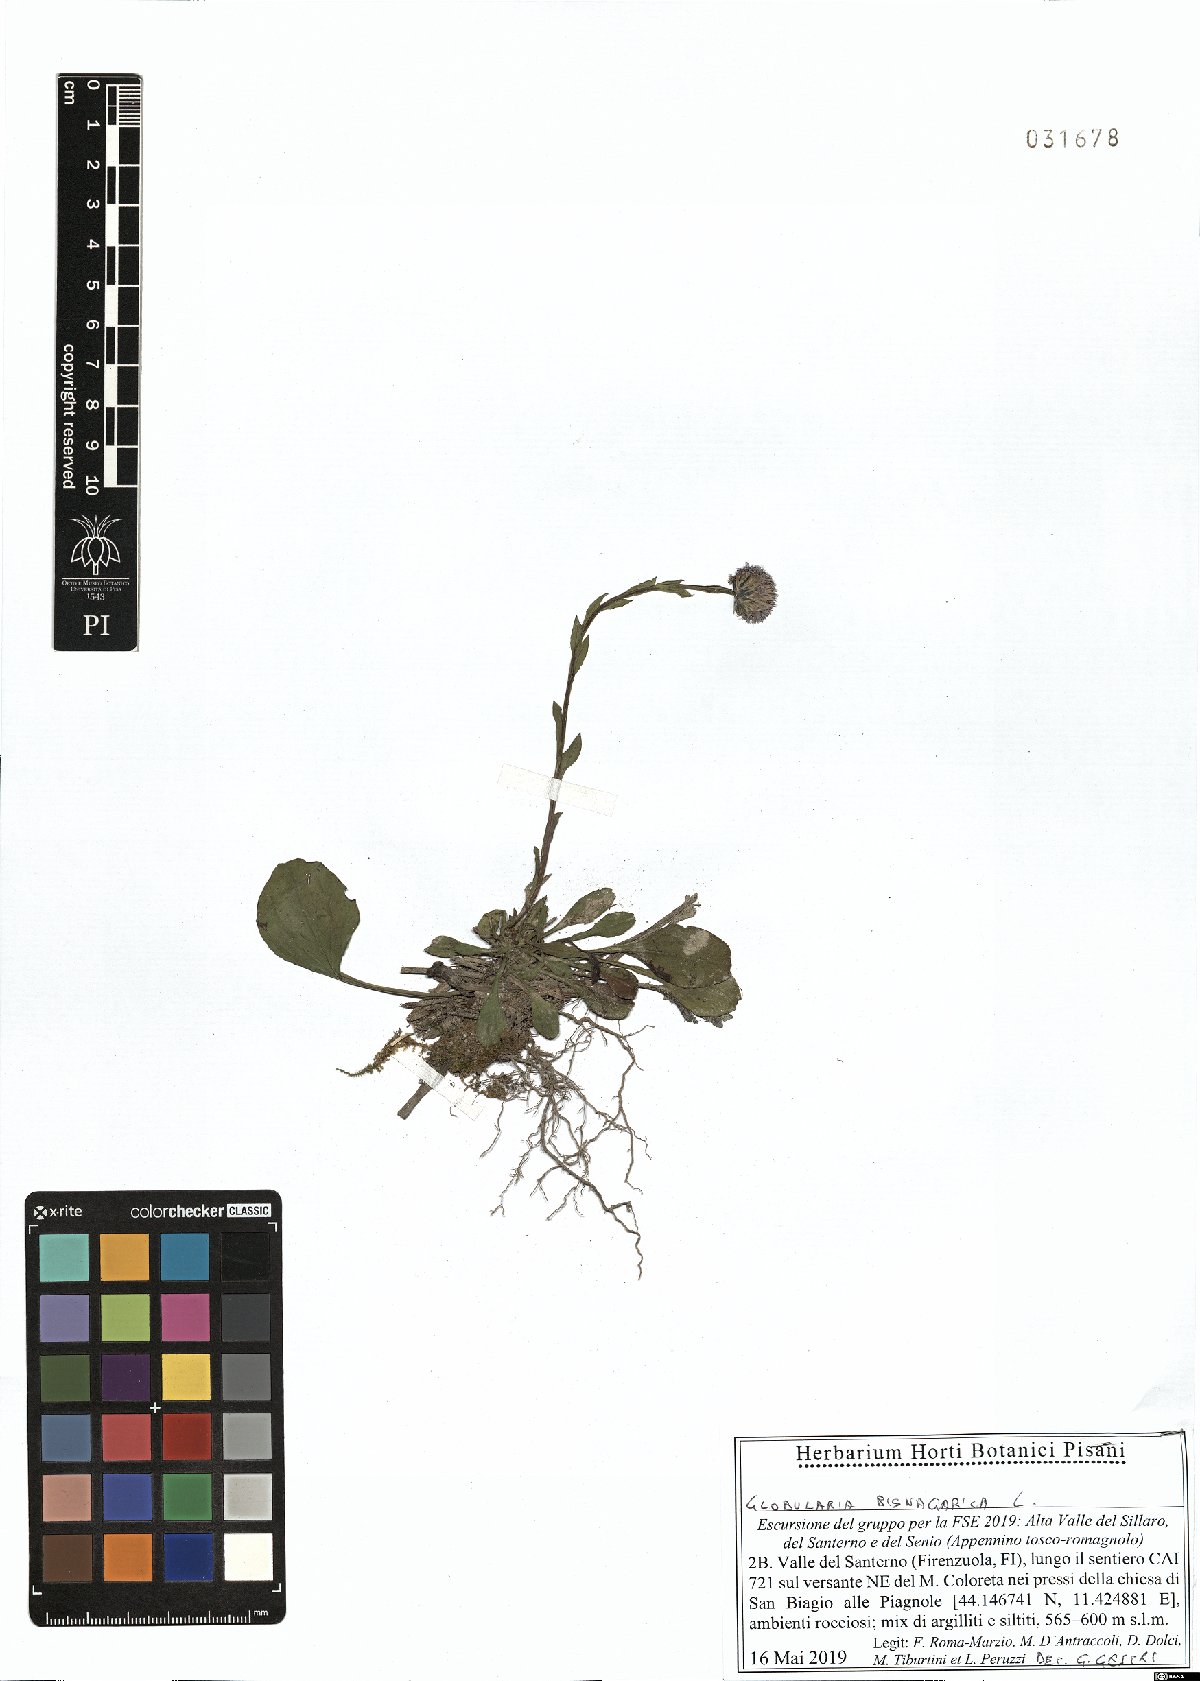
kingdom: Plantae
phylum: Tracheophyta
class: Magnoliopsida
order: Lamiales
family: Plantaginaceae
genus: Globularia
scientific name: Globularia bisnagarica
